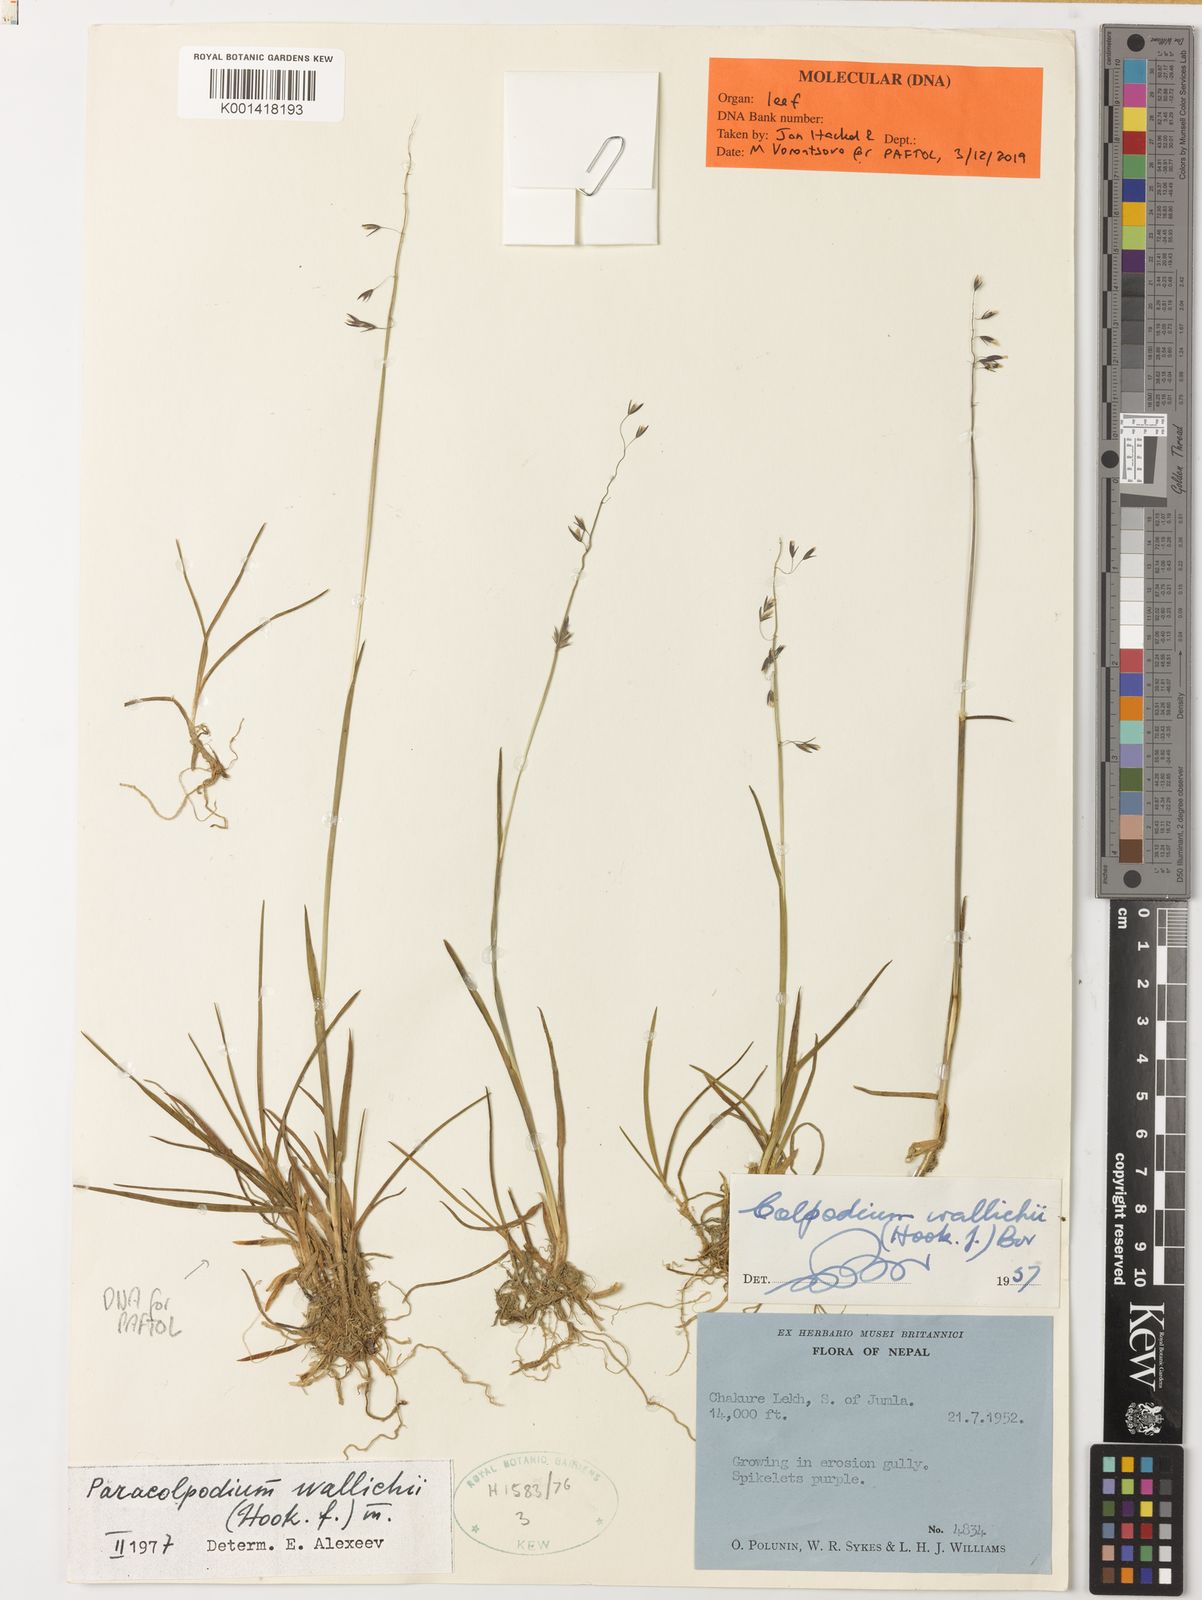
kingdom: Plantae
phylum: Tracheophyta
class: Liliopsida
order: Poales
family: Poaceae
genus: Paracolpodium
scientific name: Paracolpodium wallichii
